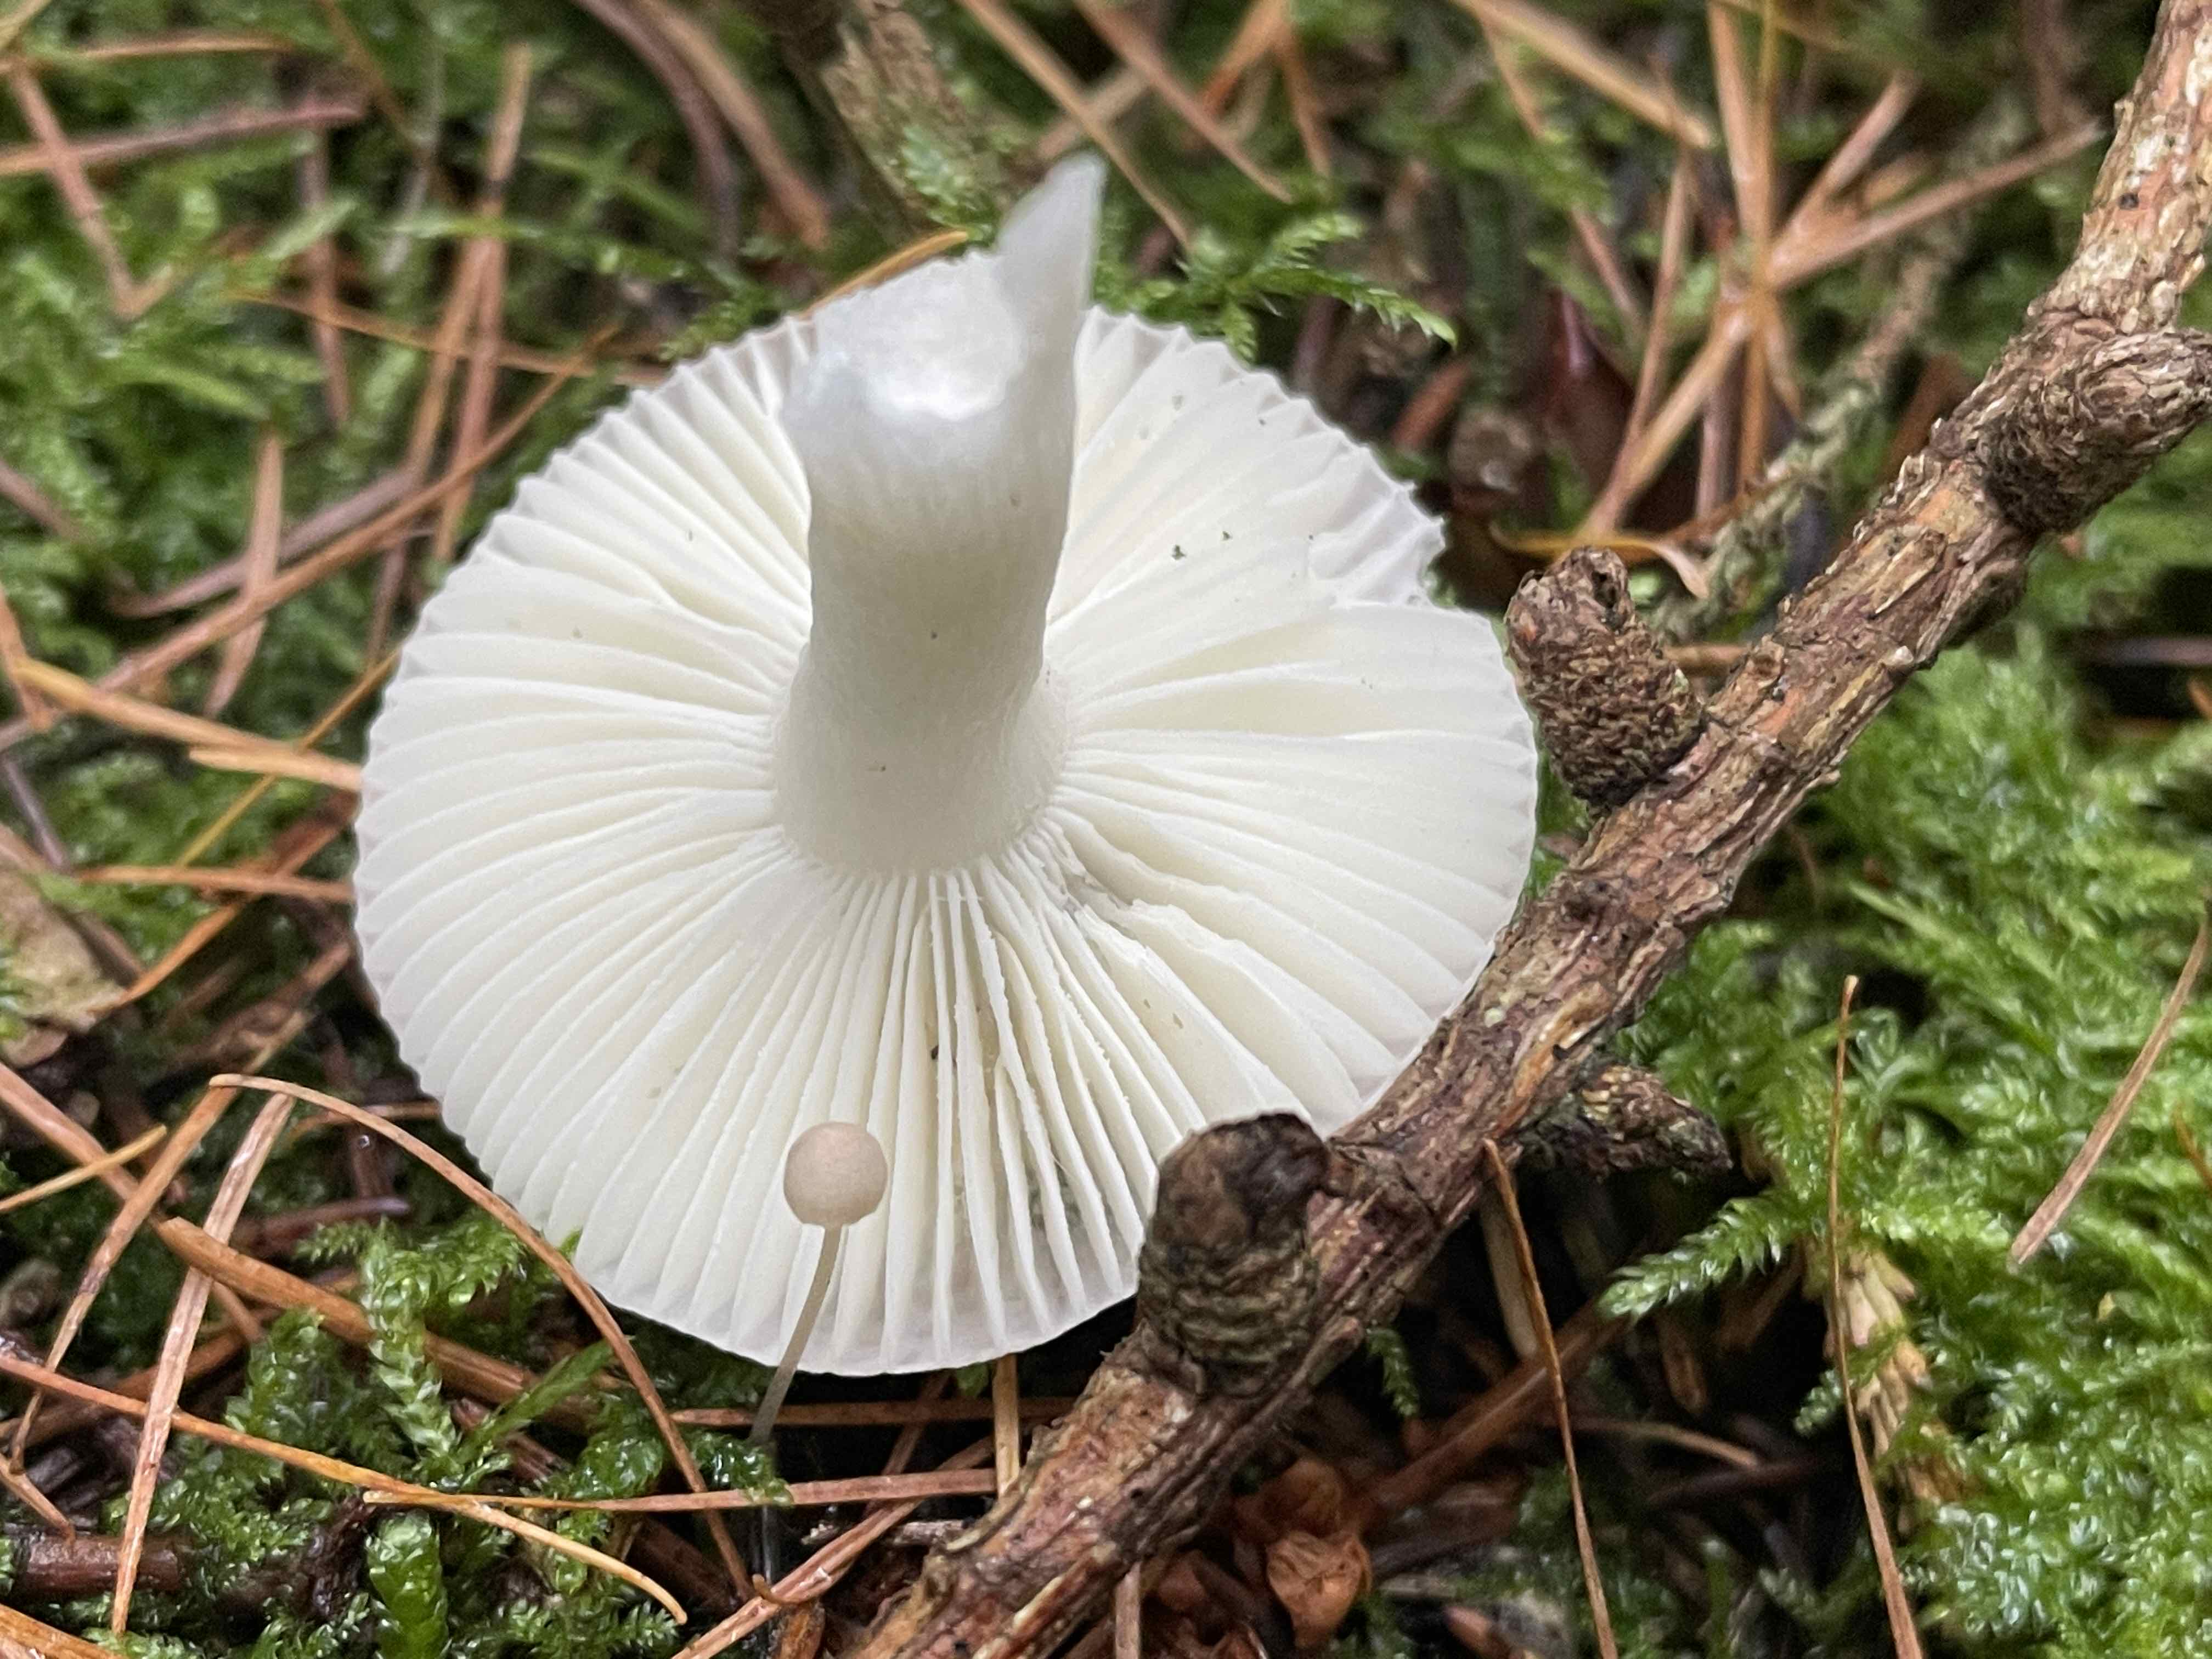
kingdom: Fungi
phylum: Basidiomycota
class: Agaricomycetes
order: Russulales
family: Russulaceae
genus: Russula
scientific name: Russula betularum
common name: bleg gift-skørhat
